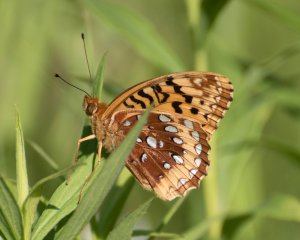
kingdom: Animalia
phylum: Arthropoda
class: Insecta
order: Lepidoptera
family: Nymphalidae
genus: Speyeria
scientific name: Speyeria cybele
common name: Great Spangled Fritillary
